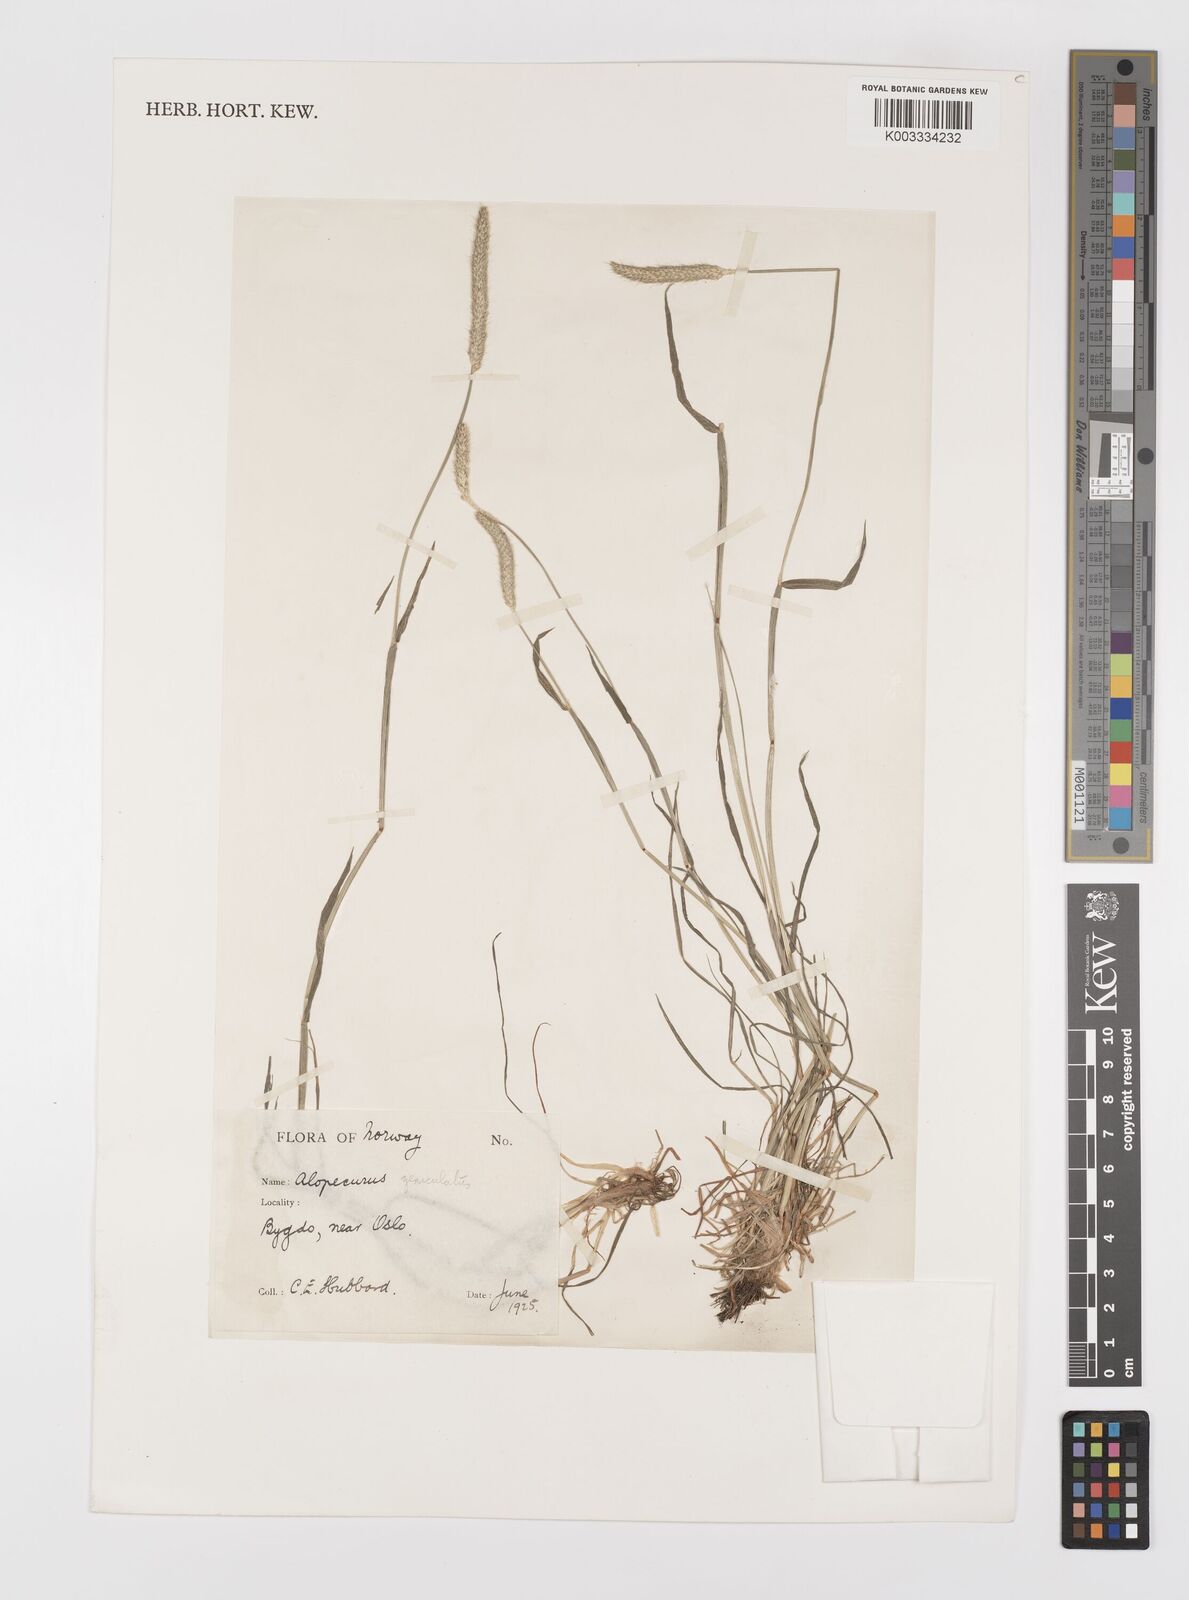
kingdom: Plantae
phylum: Tracheophyta
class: Liliopsida
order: Poales
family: Poaceae
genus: Alopecurus
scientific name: Alopecurus geniculatus
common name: Water foxtail
